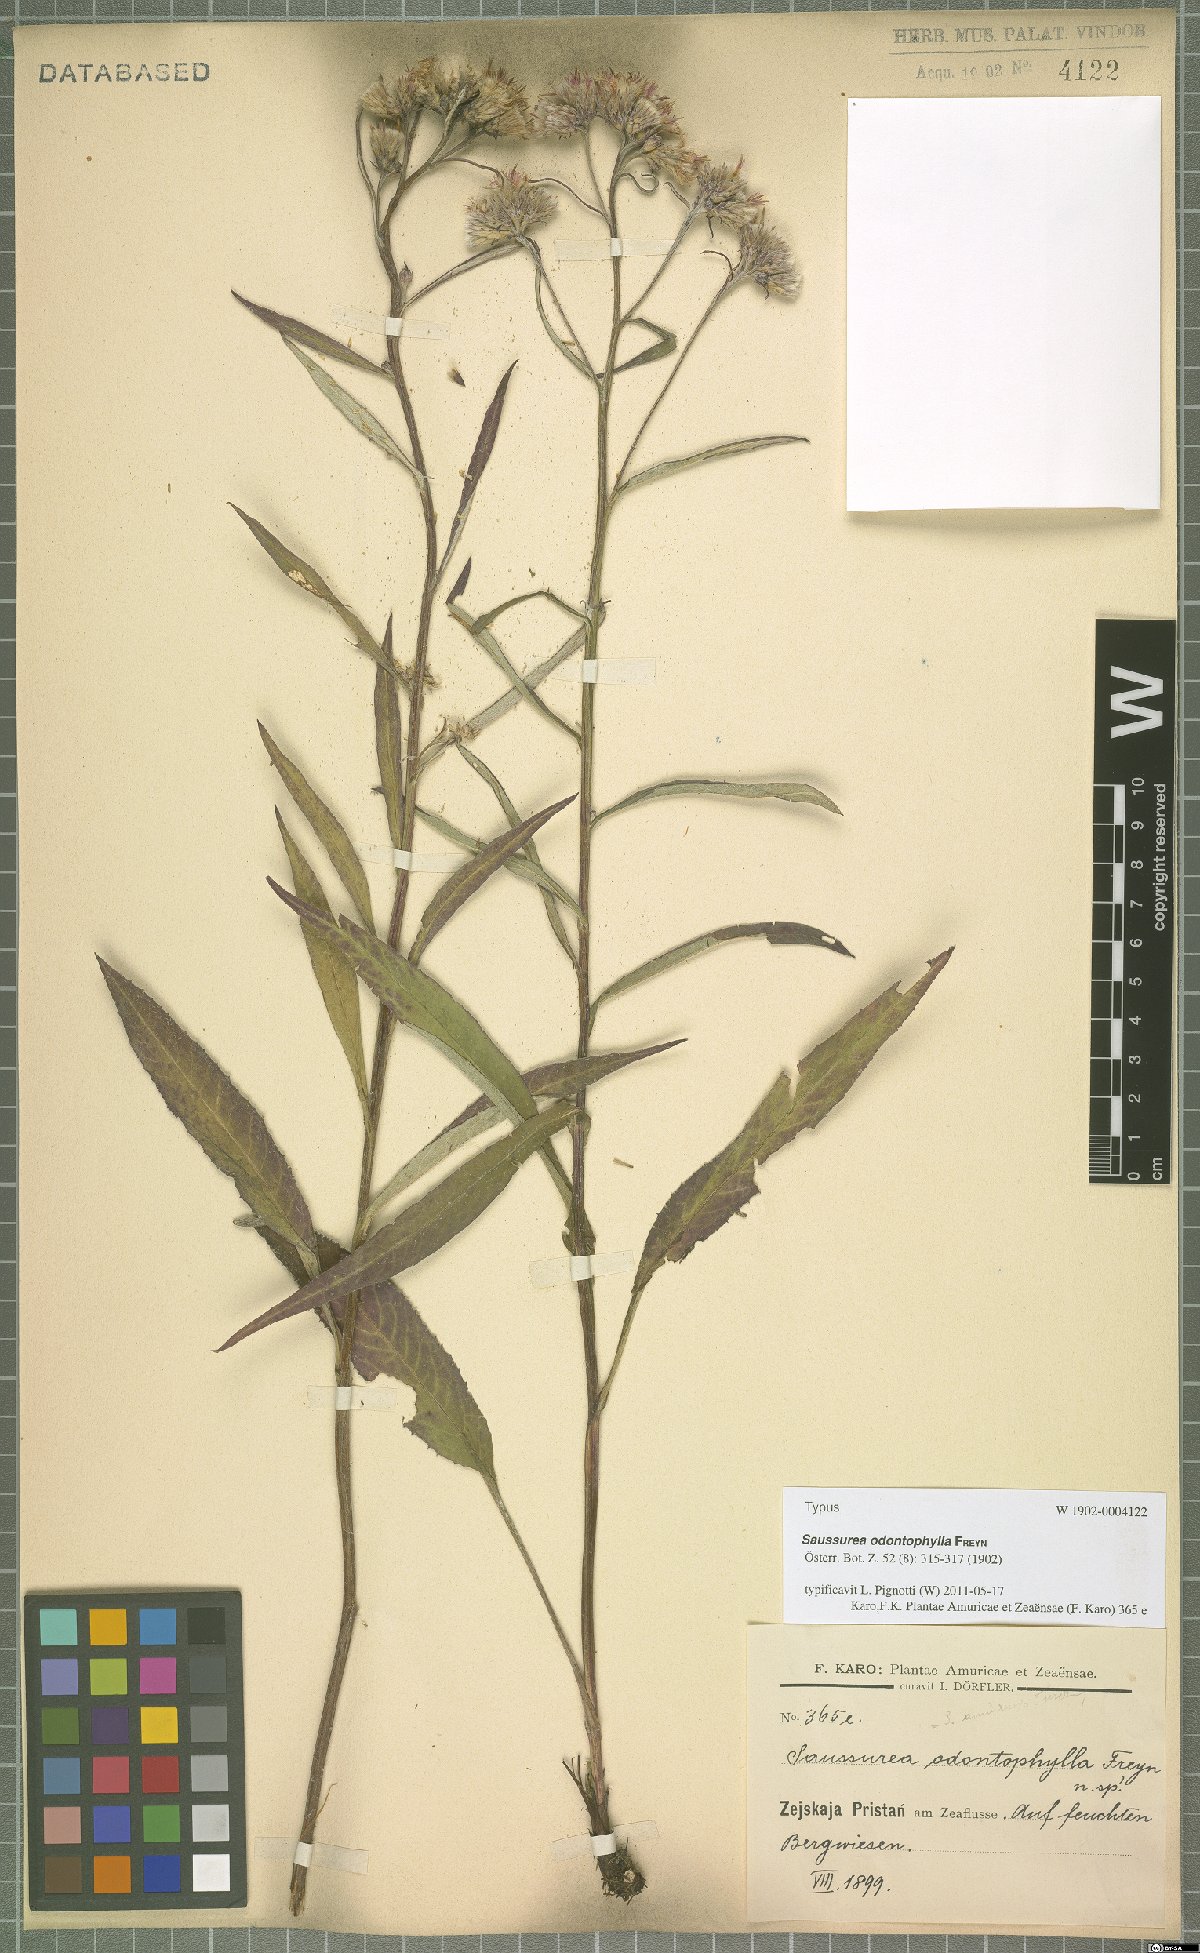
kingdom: Plantae
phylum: Tracheophyta
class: Magnoliopsida
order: Asterales
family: Asteraceae
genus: Saussurea
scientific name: Saussurea amurensis
